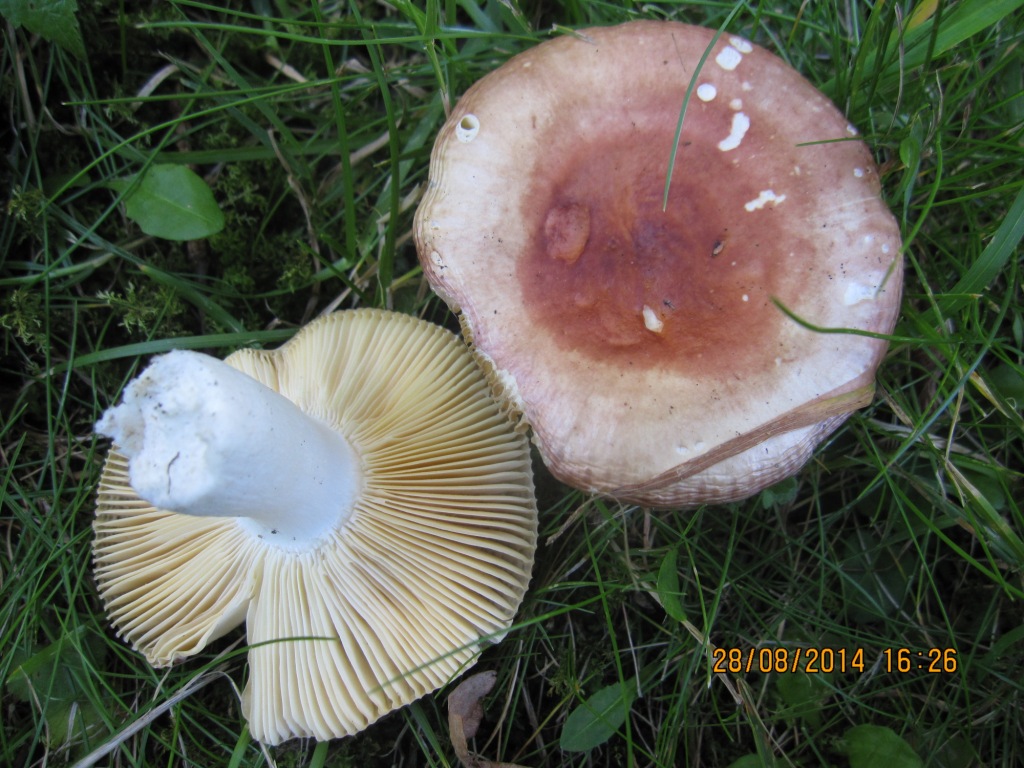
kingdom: Fungi
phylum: Basidiomycota
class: Agaricomycetes
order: Russulales
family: Russulaceae
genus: Russula
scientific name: Russula laeta
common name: orangerosa skørhat
